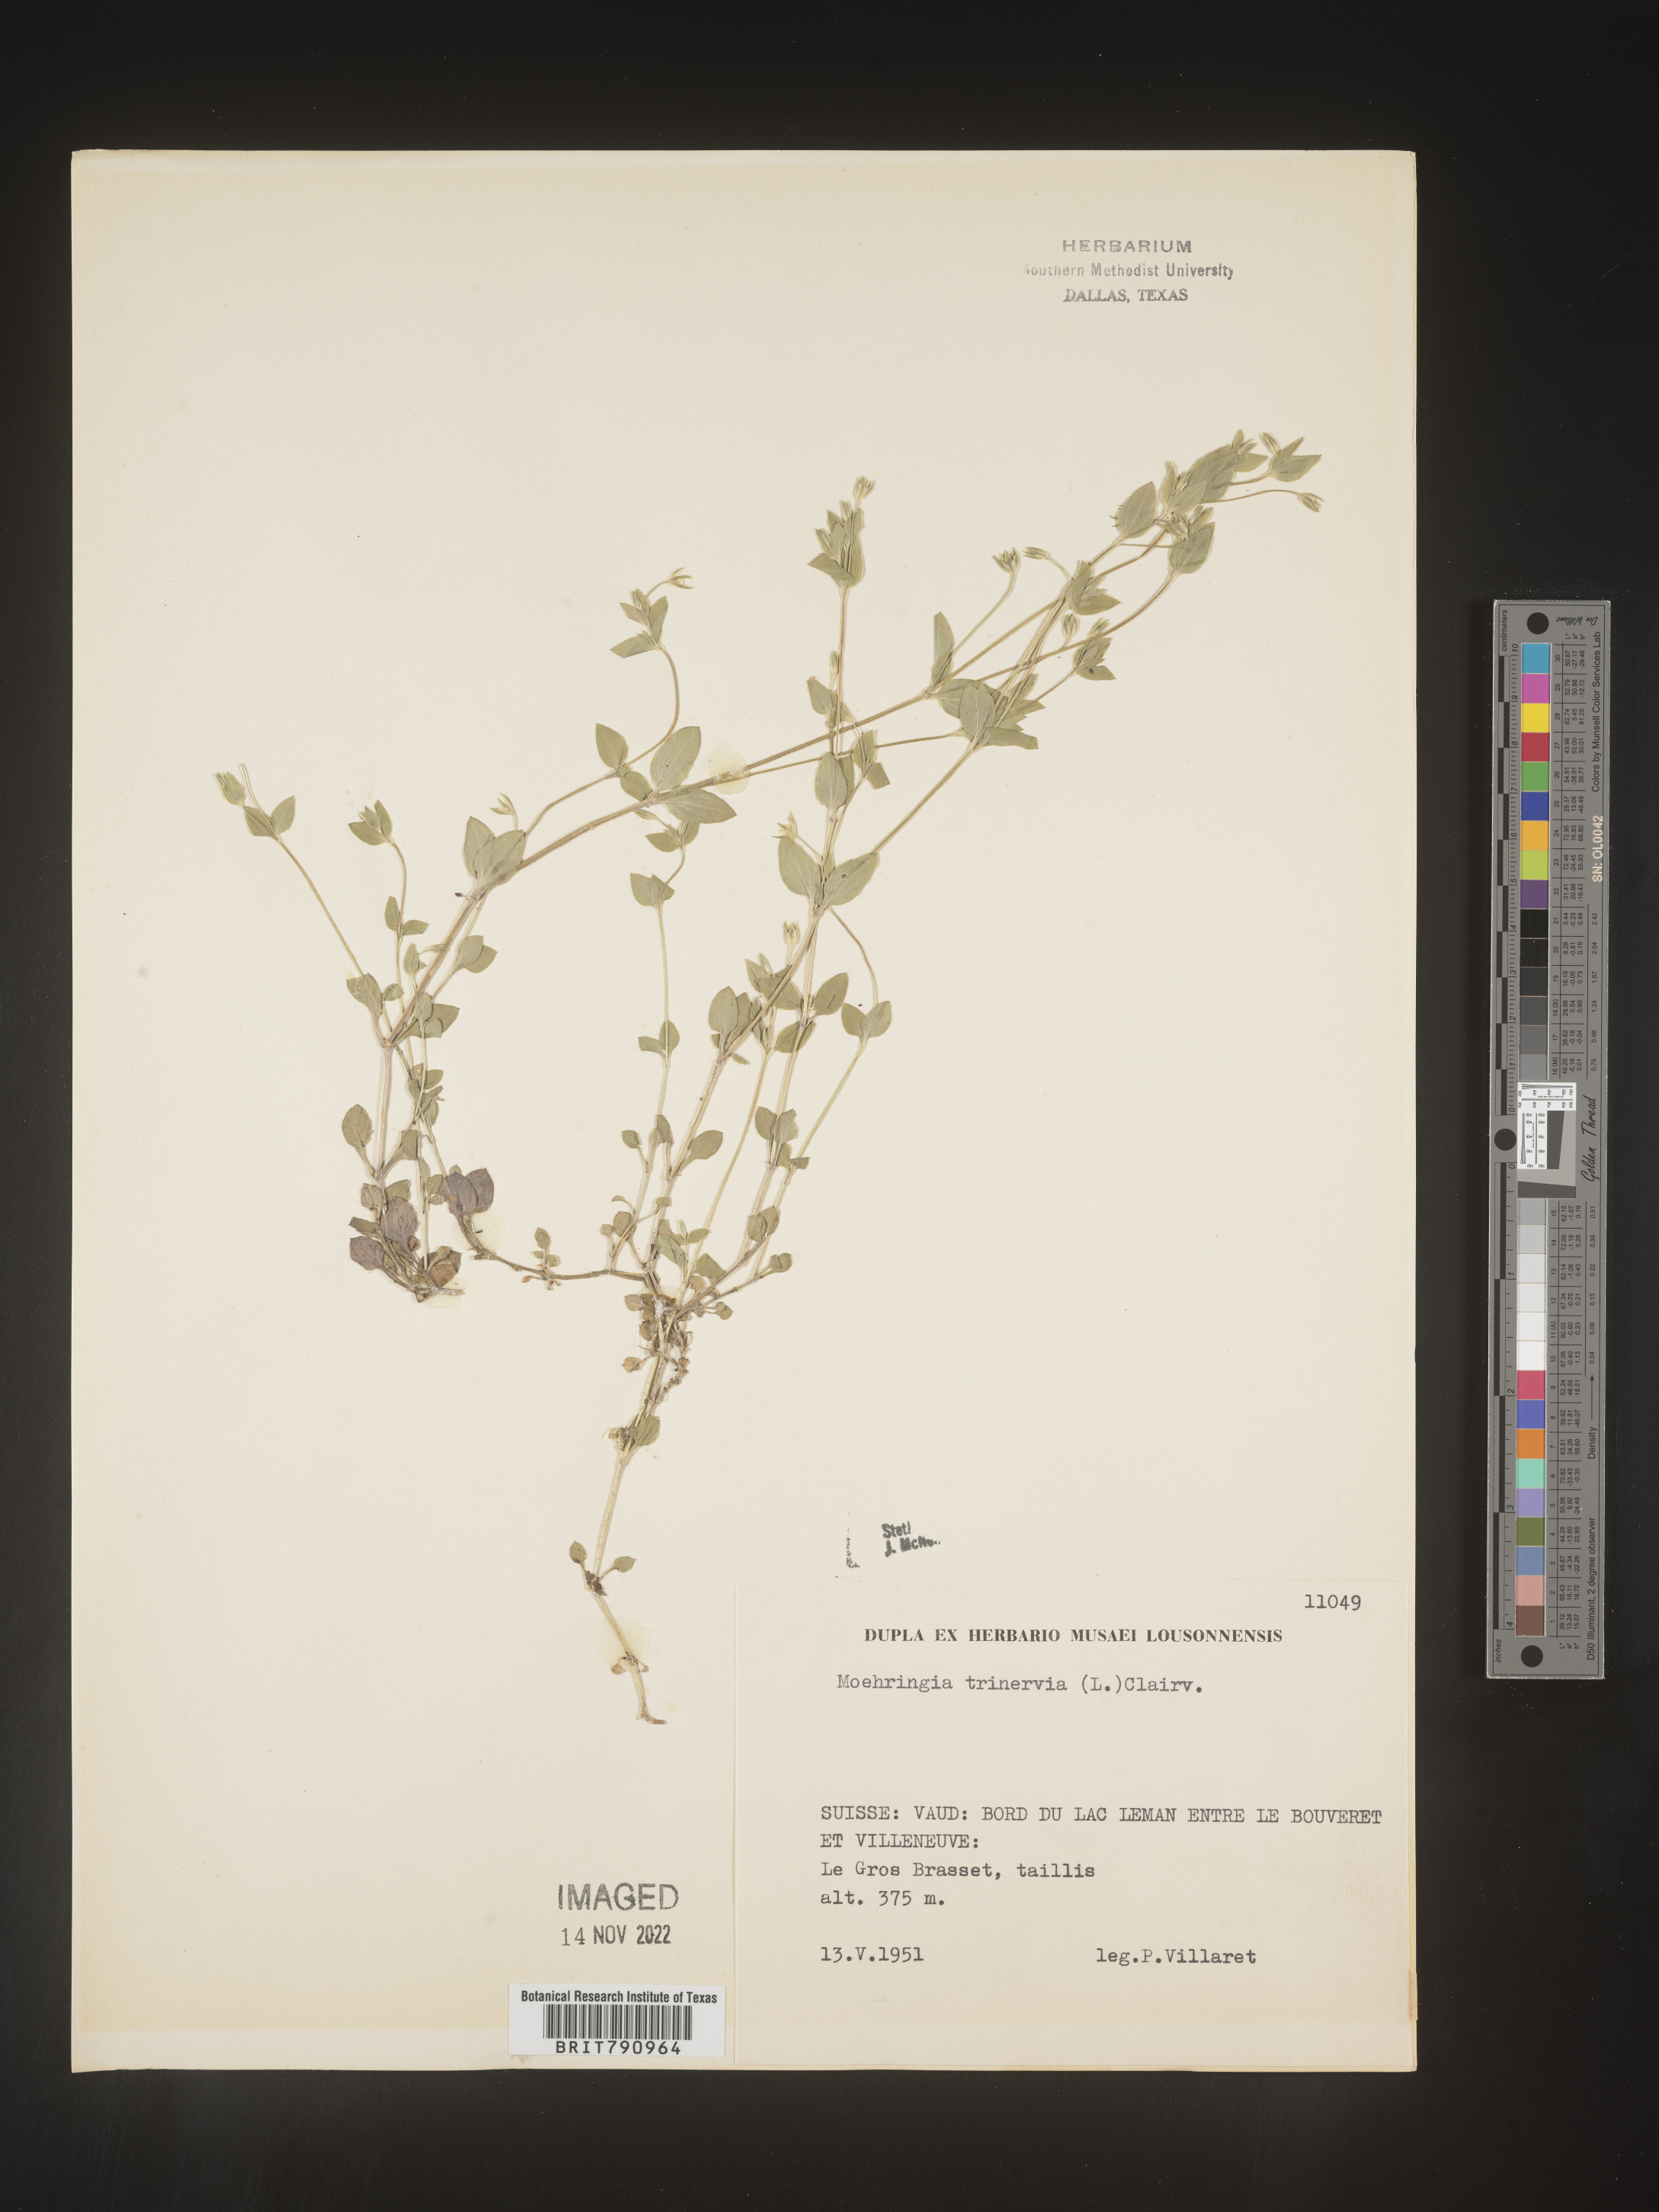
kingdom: Plantae
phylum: Tracheophyta
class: Magnoliopsida
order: Caryophyllales
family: Caryophyllaceae
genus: Moehringia
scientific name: Moehringia
